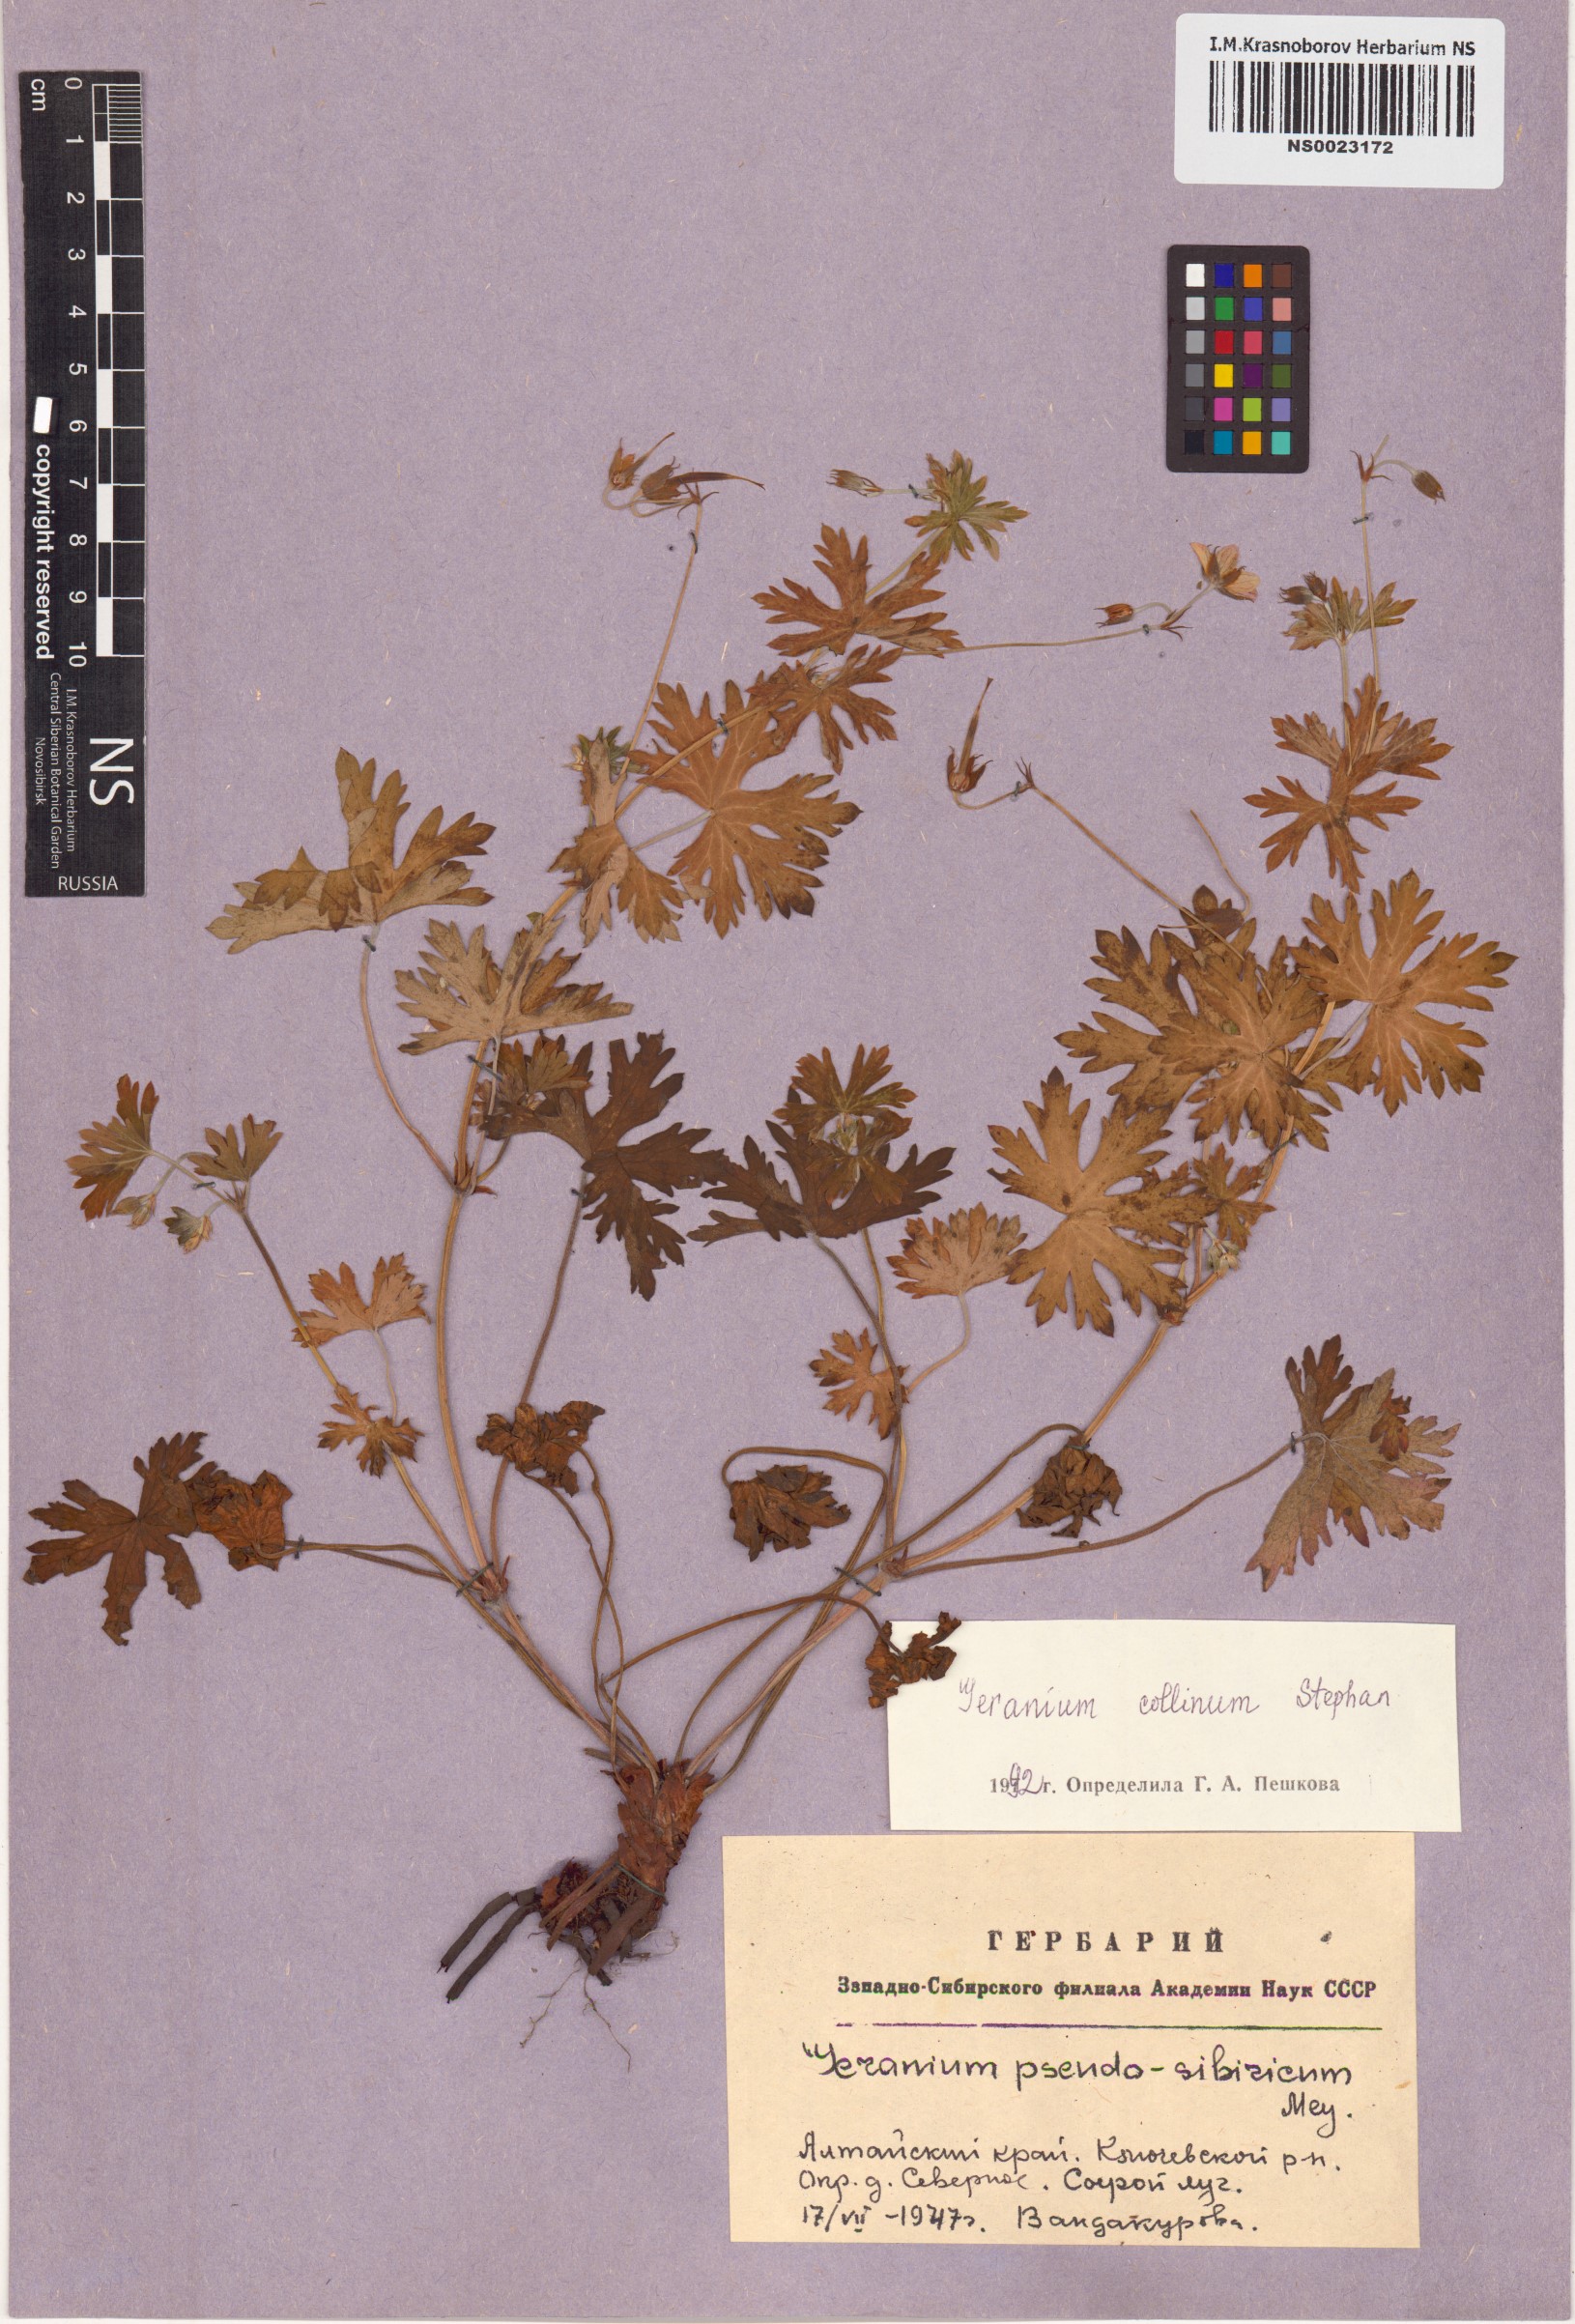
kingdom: Plantae
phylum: Tracheophyta
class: Magnoliopsida
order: Geraniales
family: Geraniaceae
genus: Geranium
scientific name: Geranium collinum
